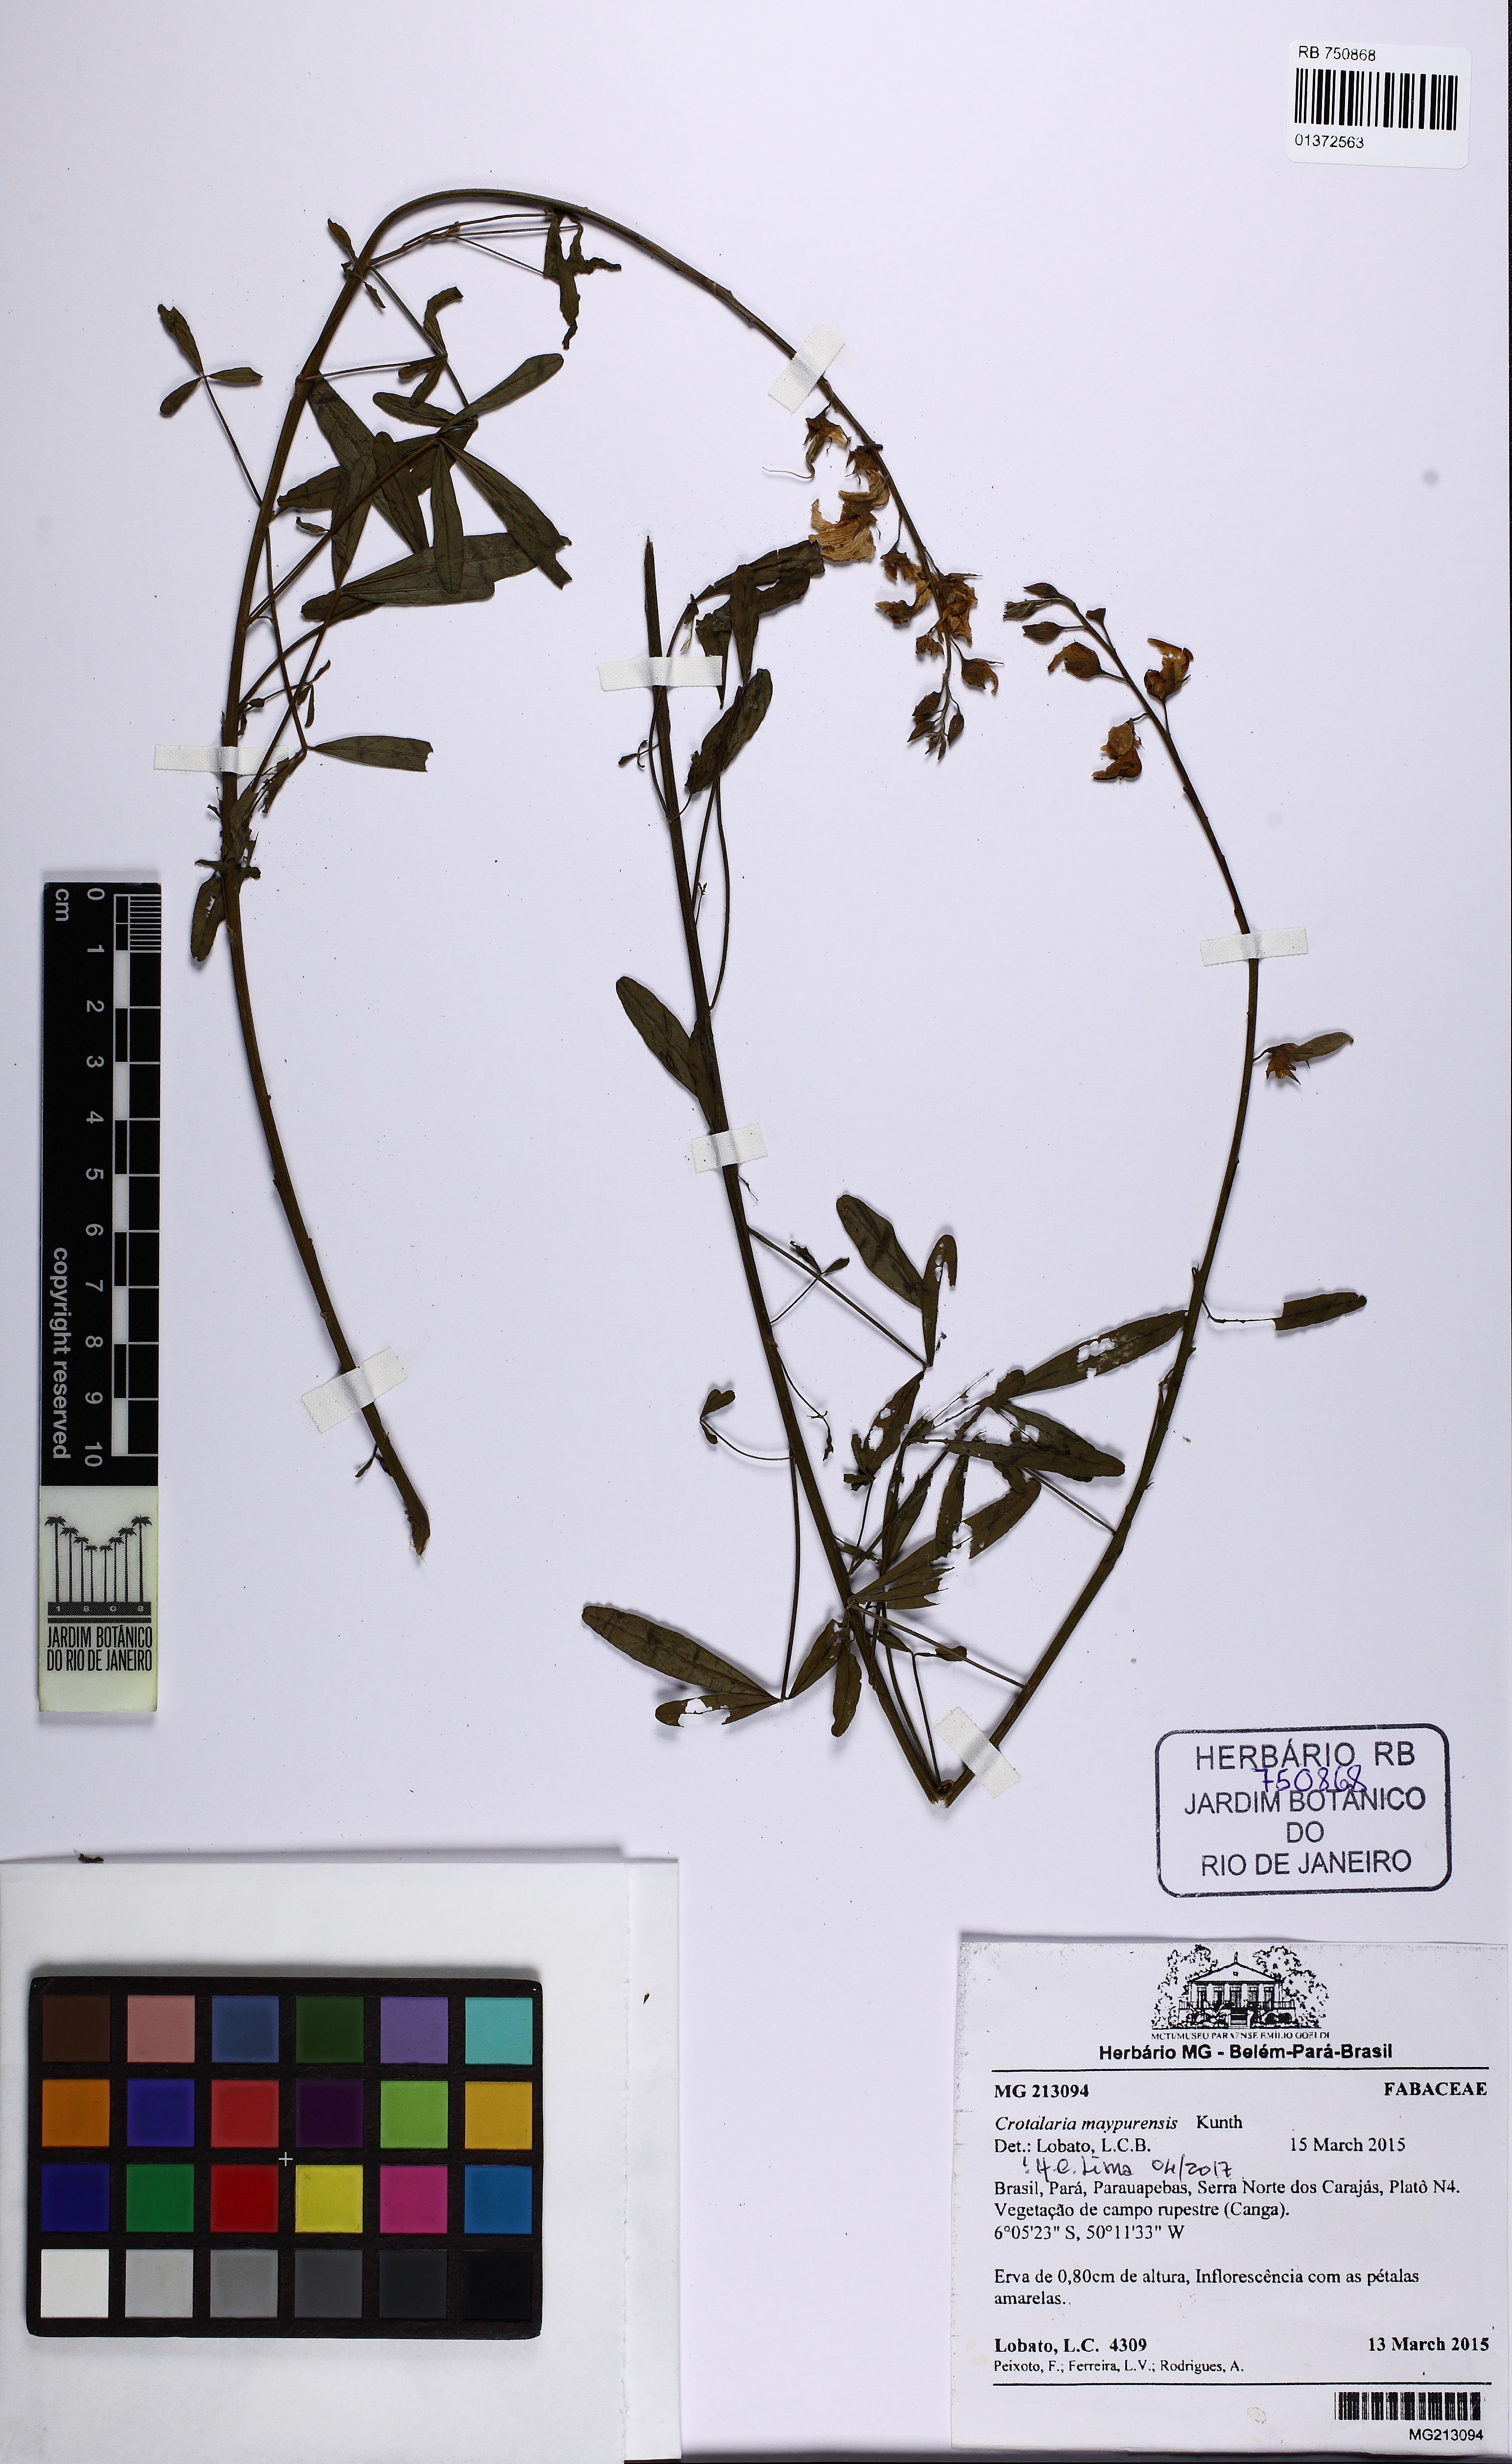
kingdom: Plantae
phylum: Tracheophyta
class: Magnoliopsida
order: Fabales
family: Fabaceae
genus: Crotalaria
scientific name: Crotalaria maypurensis
